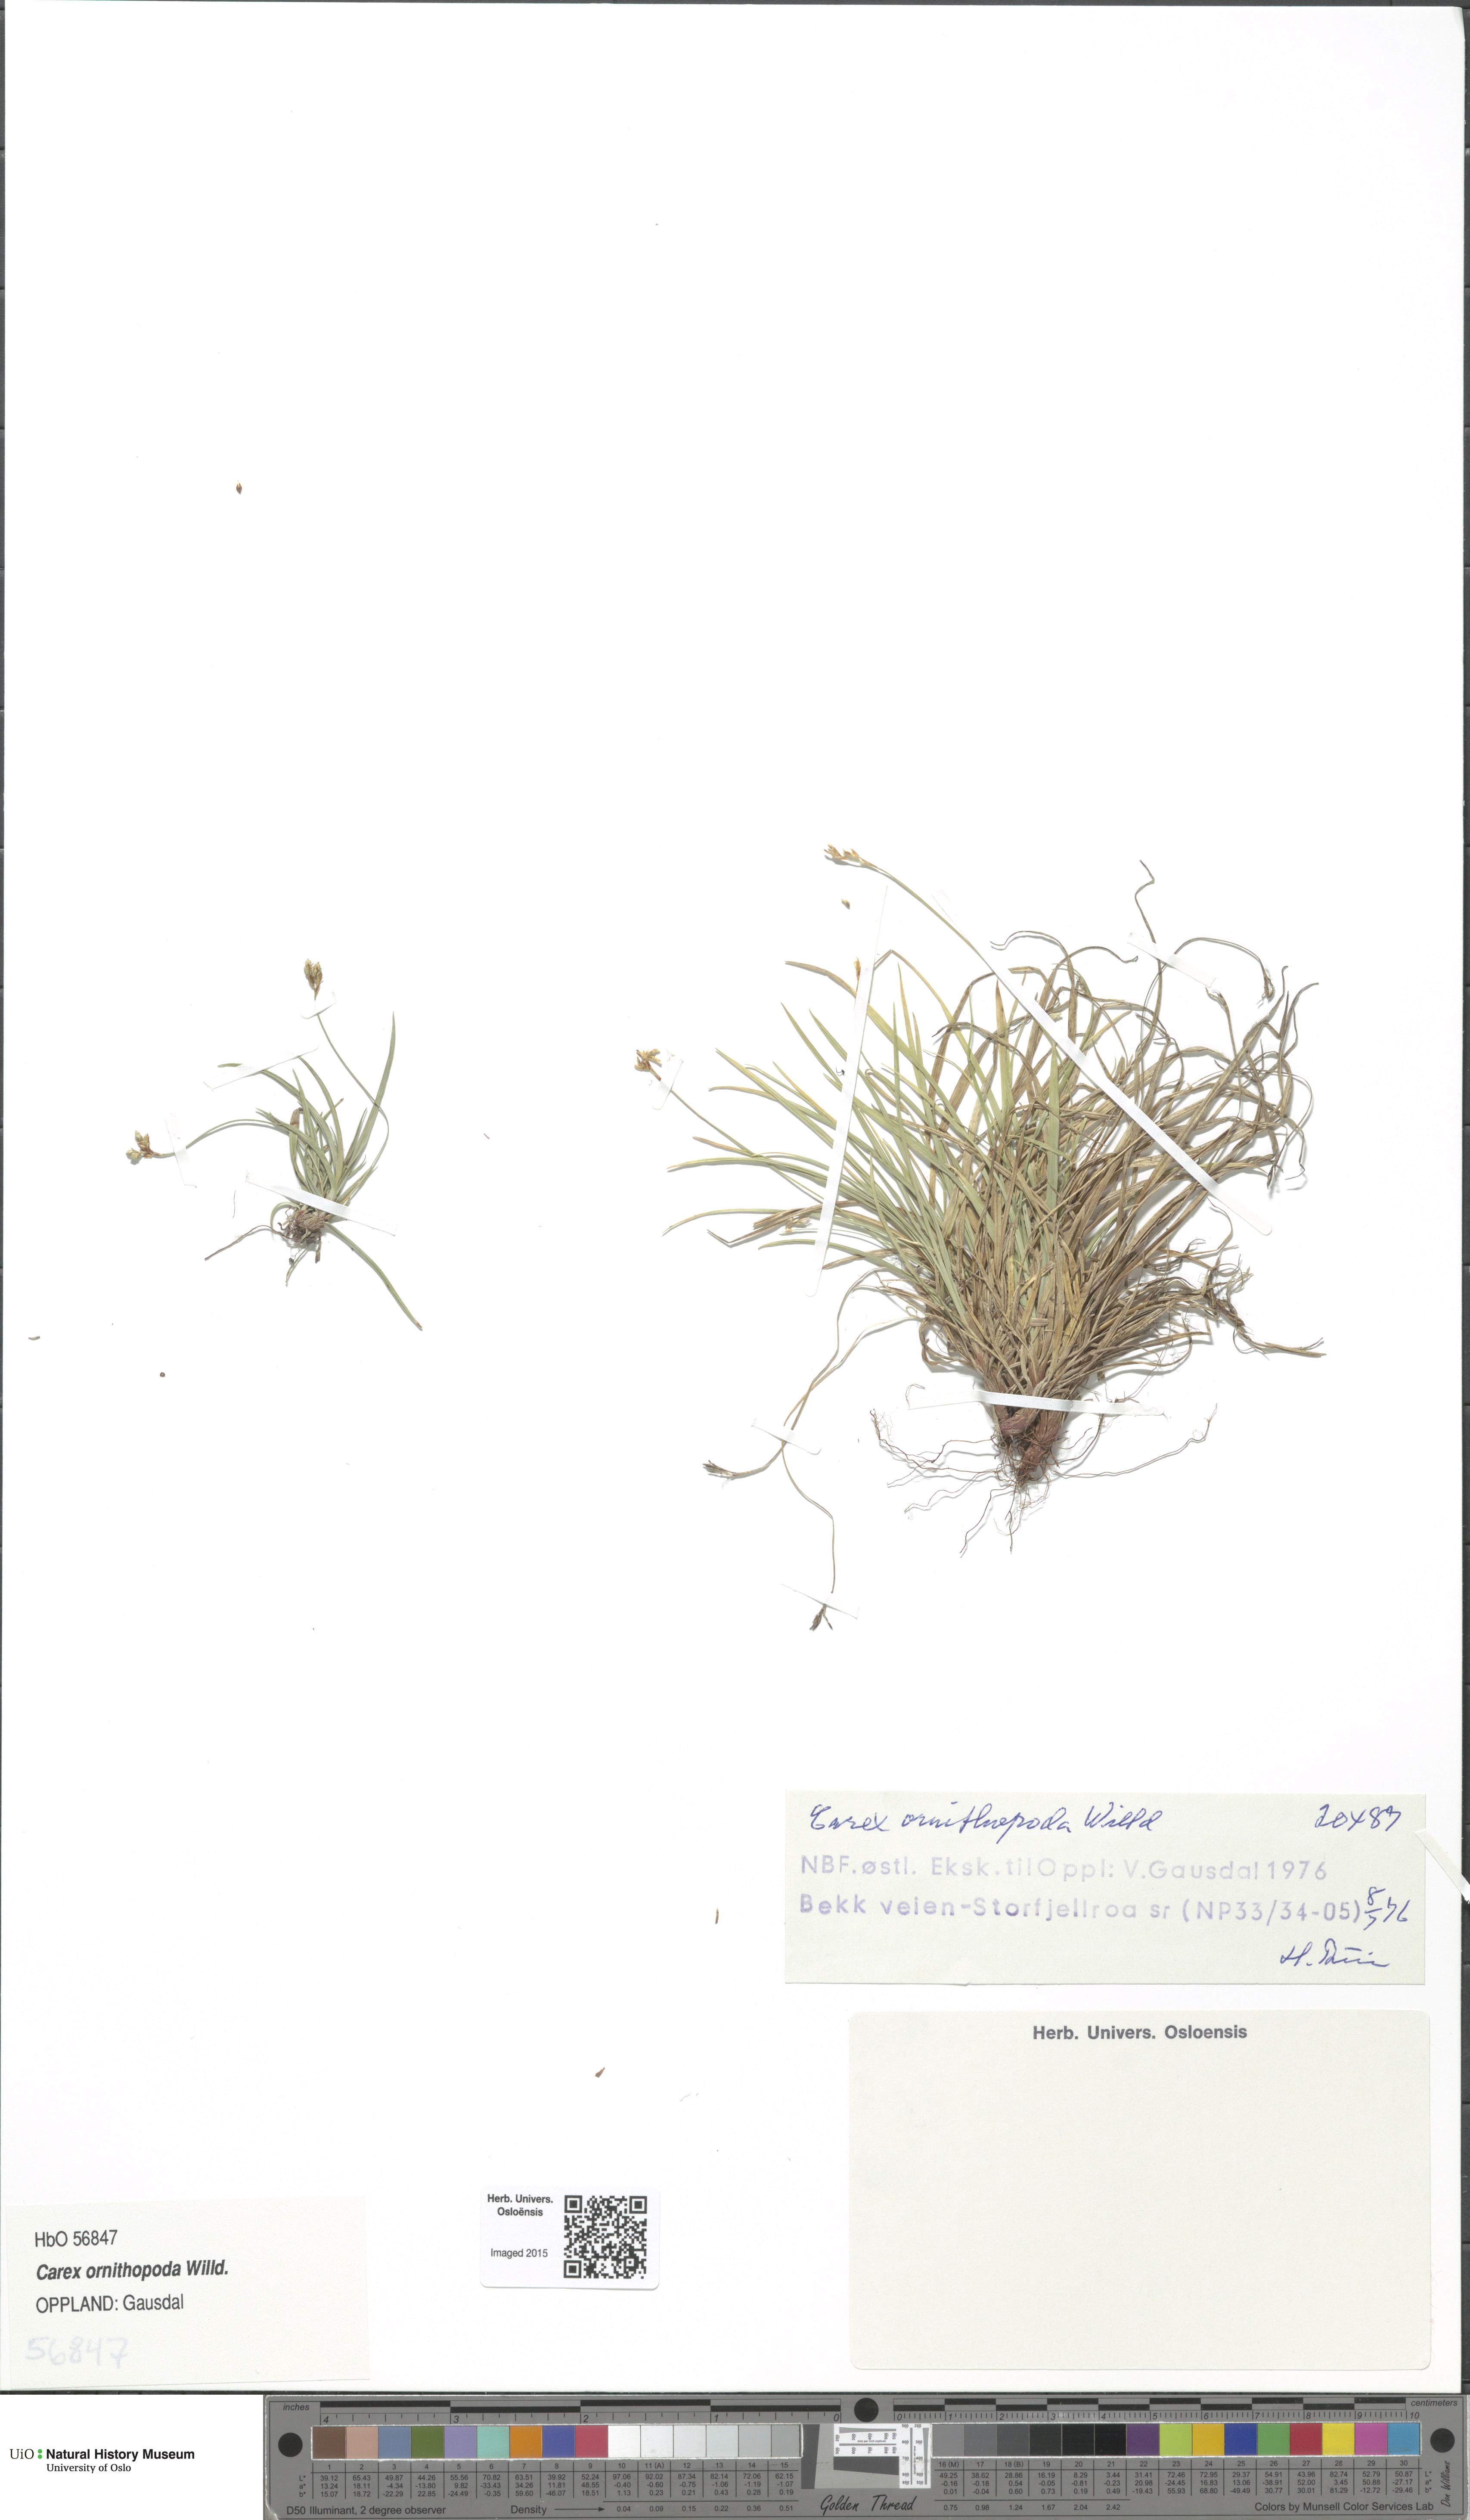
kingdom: Plantae
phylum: Tracheophyta
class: Liliopsida
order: Poales
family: Cyperaceae
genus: Carex
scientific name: Carex ornithopoda
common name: Bird's-foot sedge
